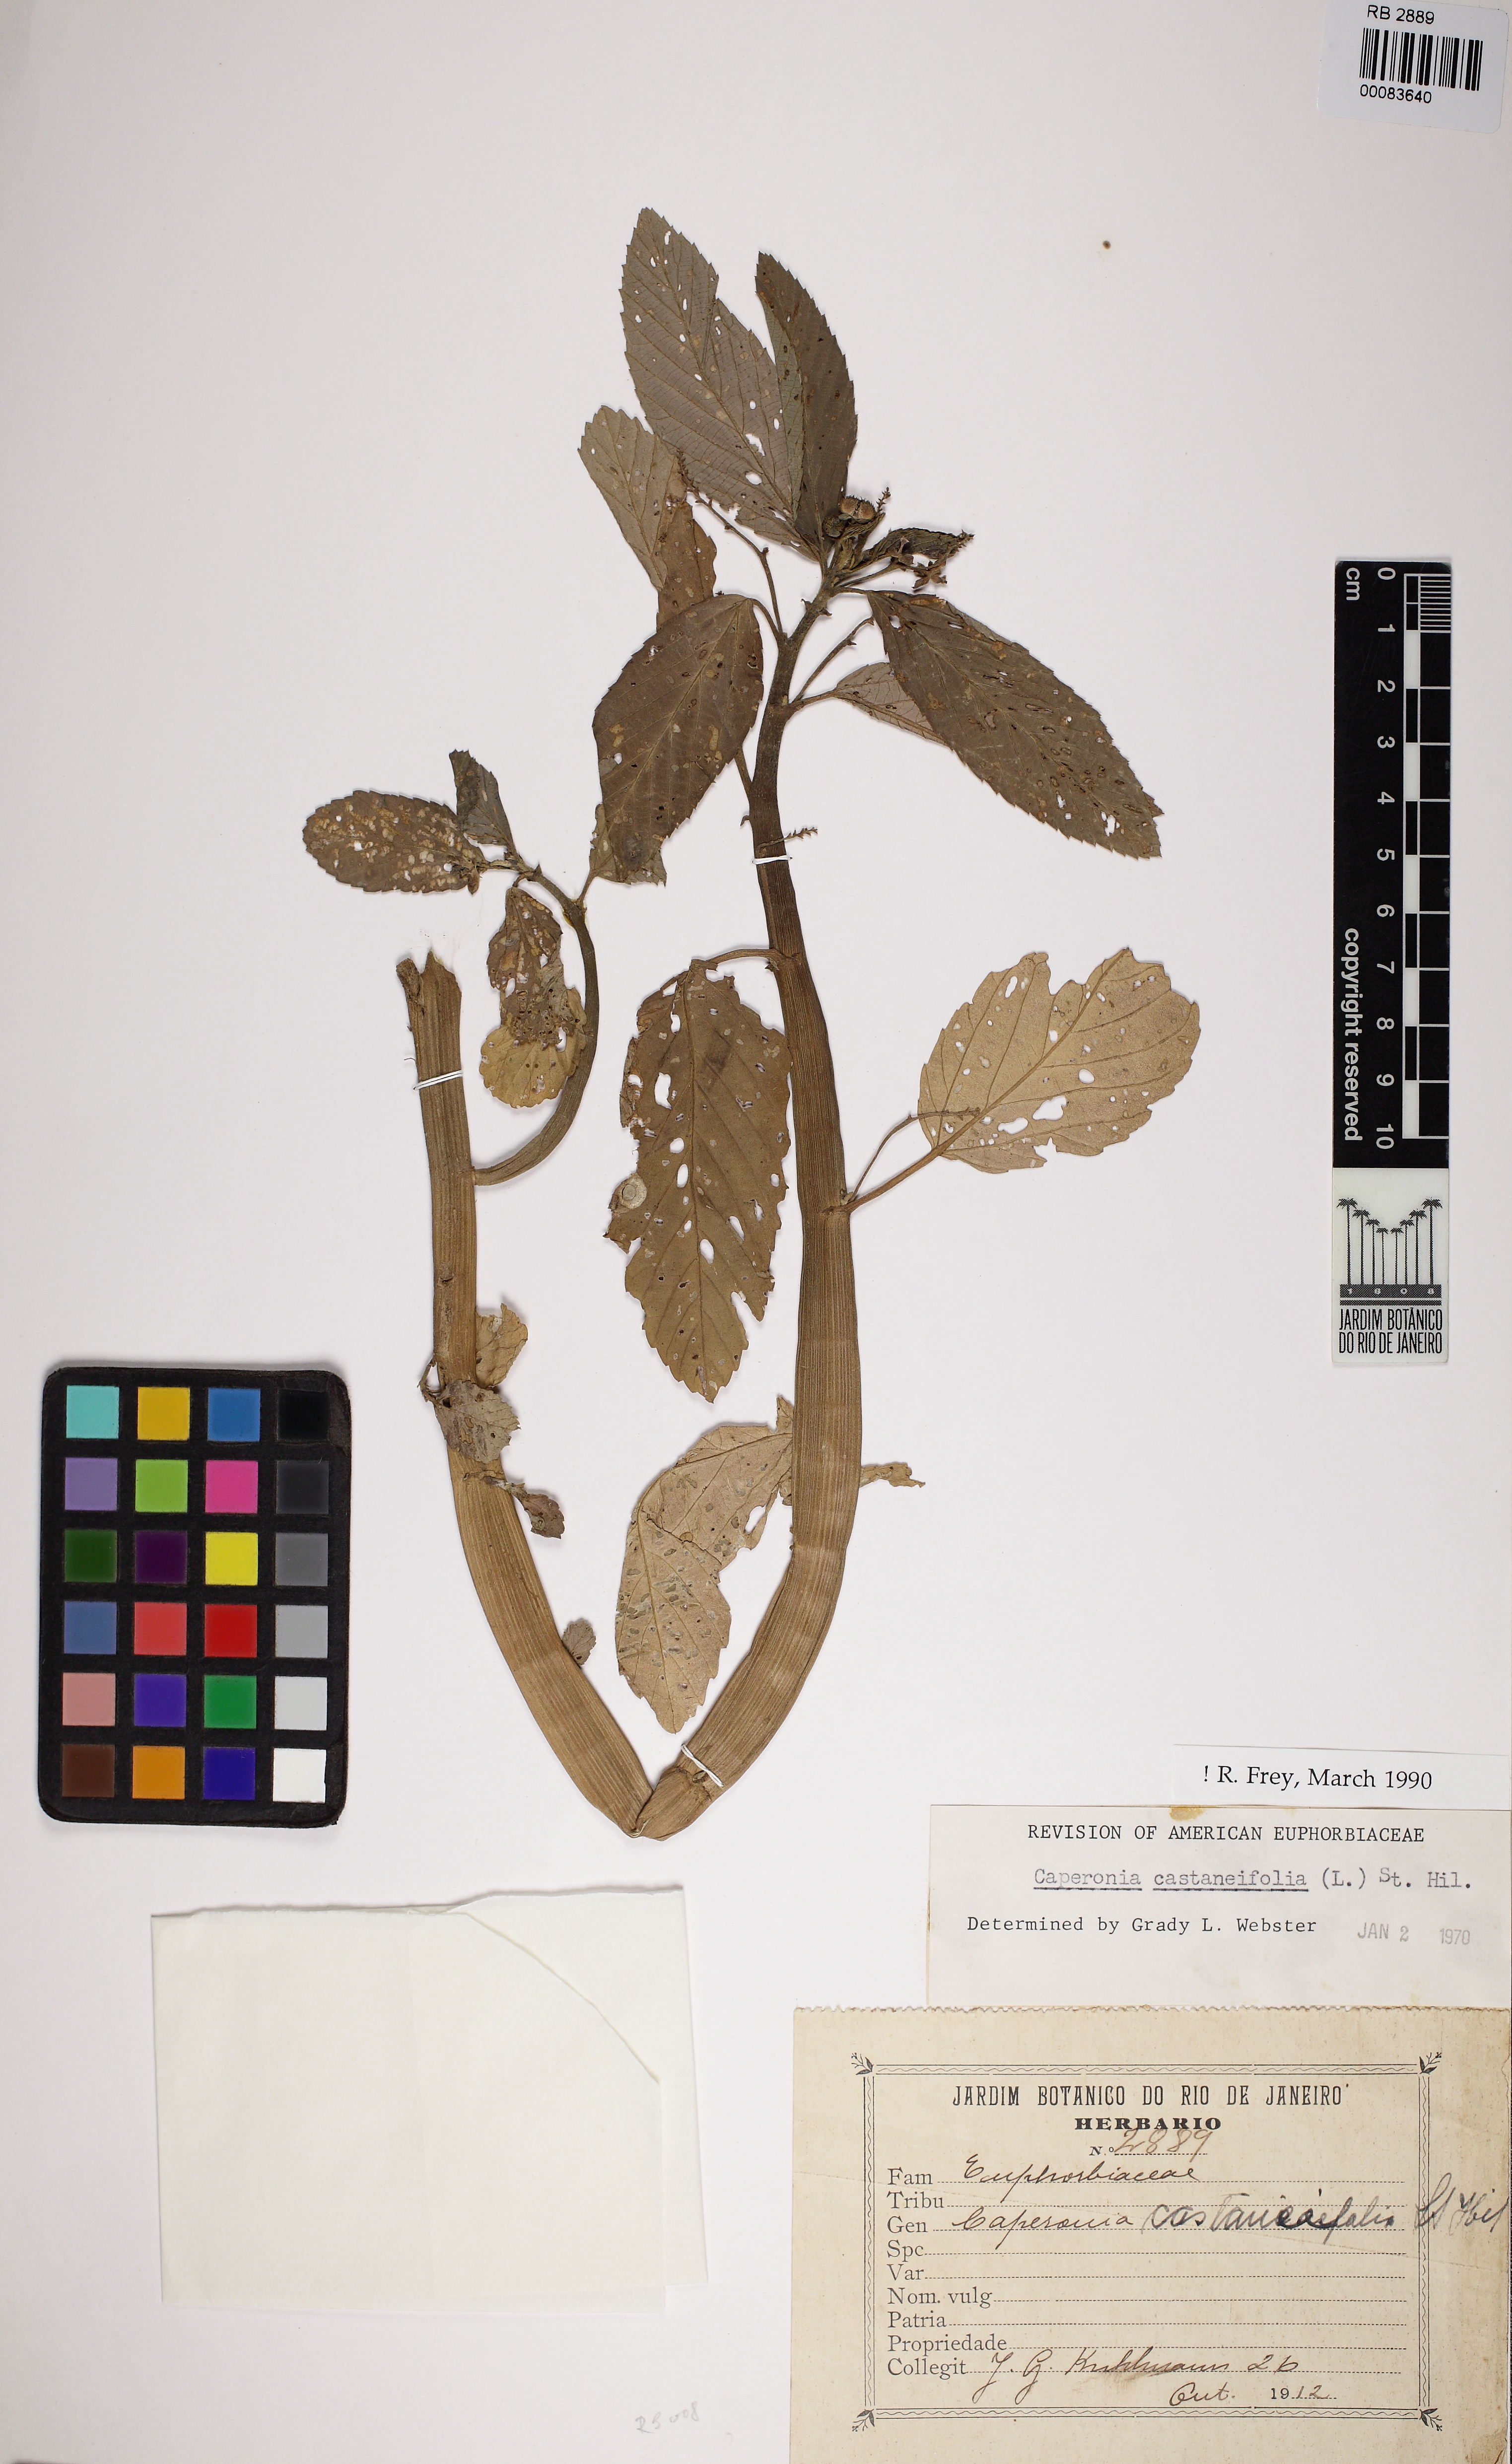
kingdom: Plantae
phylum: Tracheophyta
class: Magnoliopsida
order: Malpighiales
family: Euphorbiaceae
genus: Caperonia
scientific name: Caperonia castaneifolia
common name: Chestnutleaf false croton
